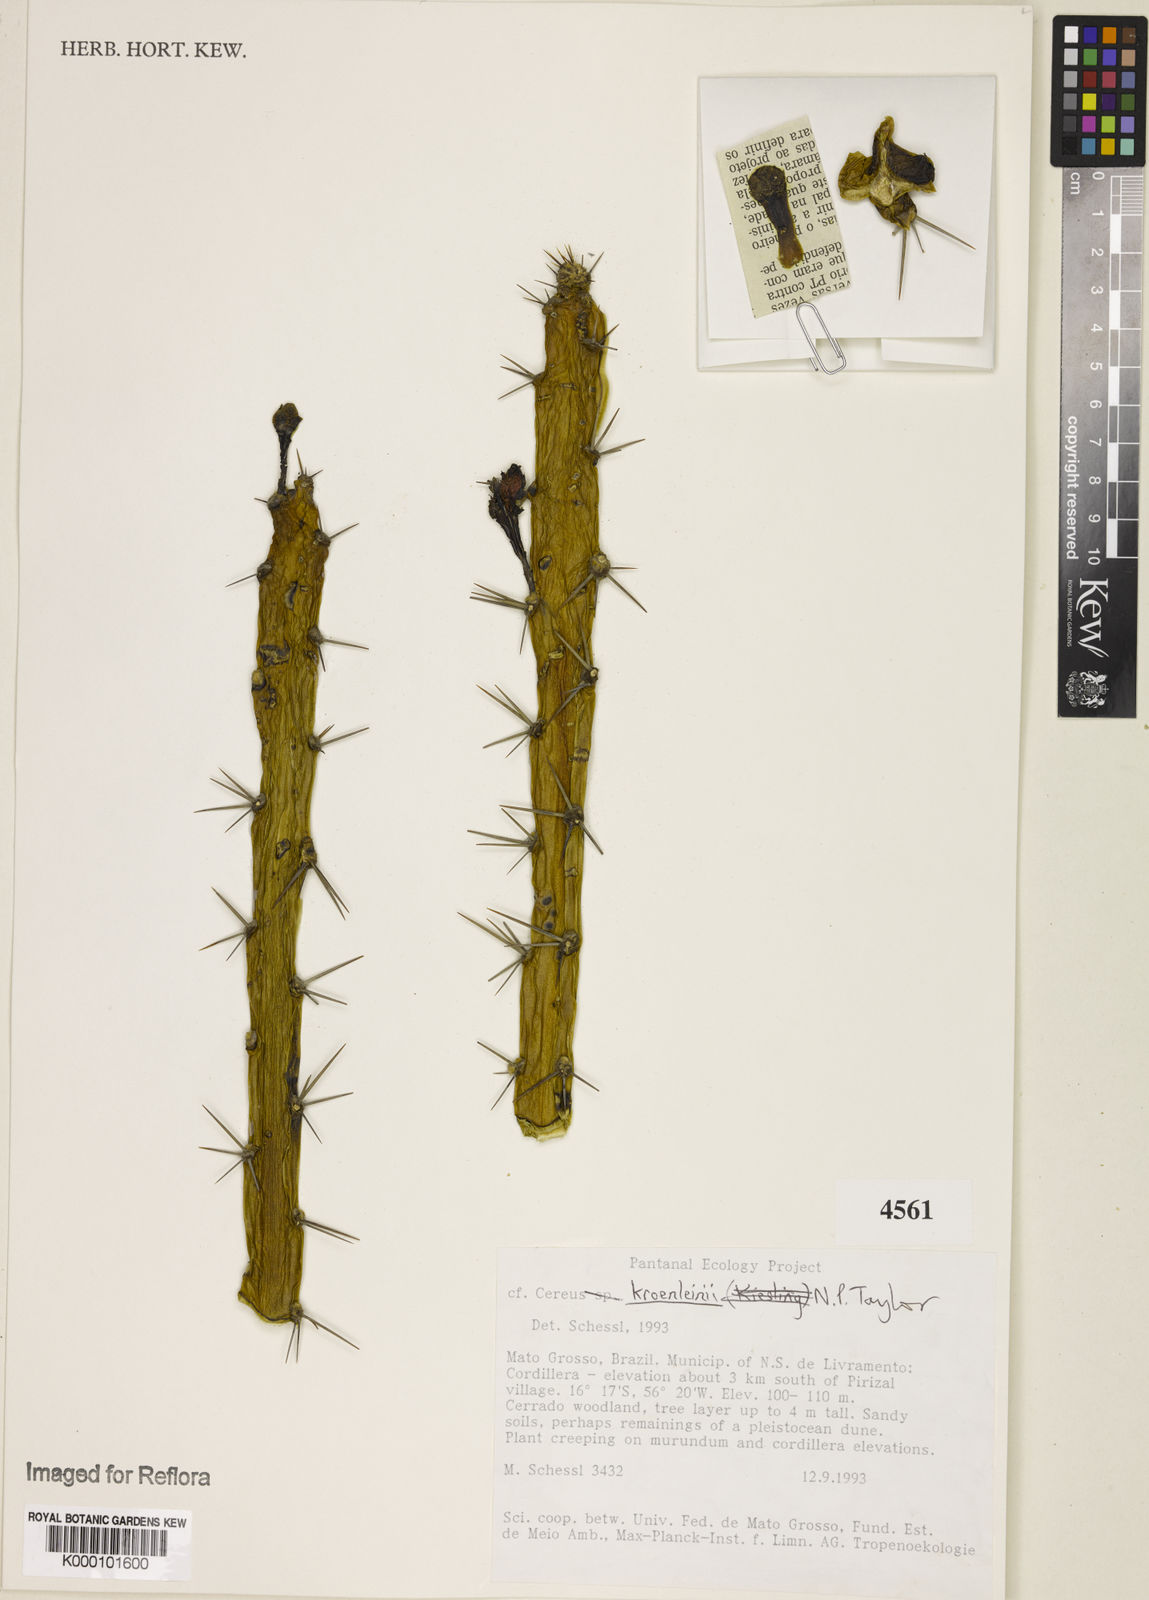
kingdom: Plantae
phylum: Tracheophyta
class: Magnoliopsida
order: Caryophyllales
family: Cactaceae
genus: Cereus
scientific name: Cereus phatnospermus
